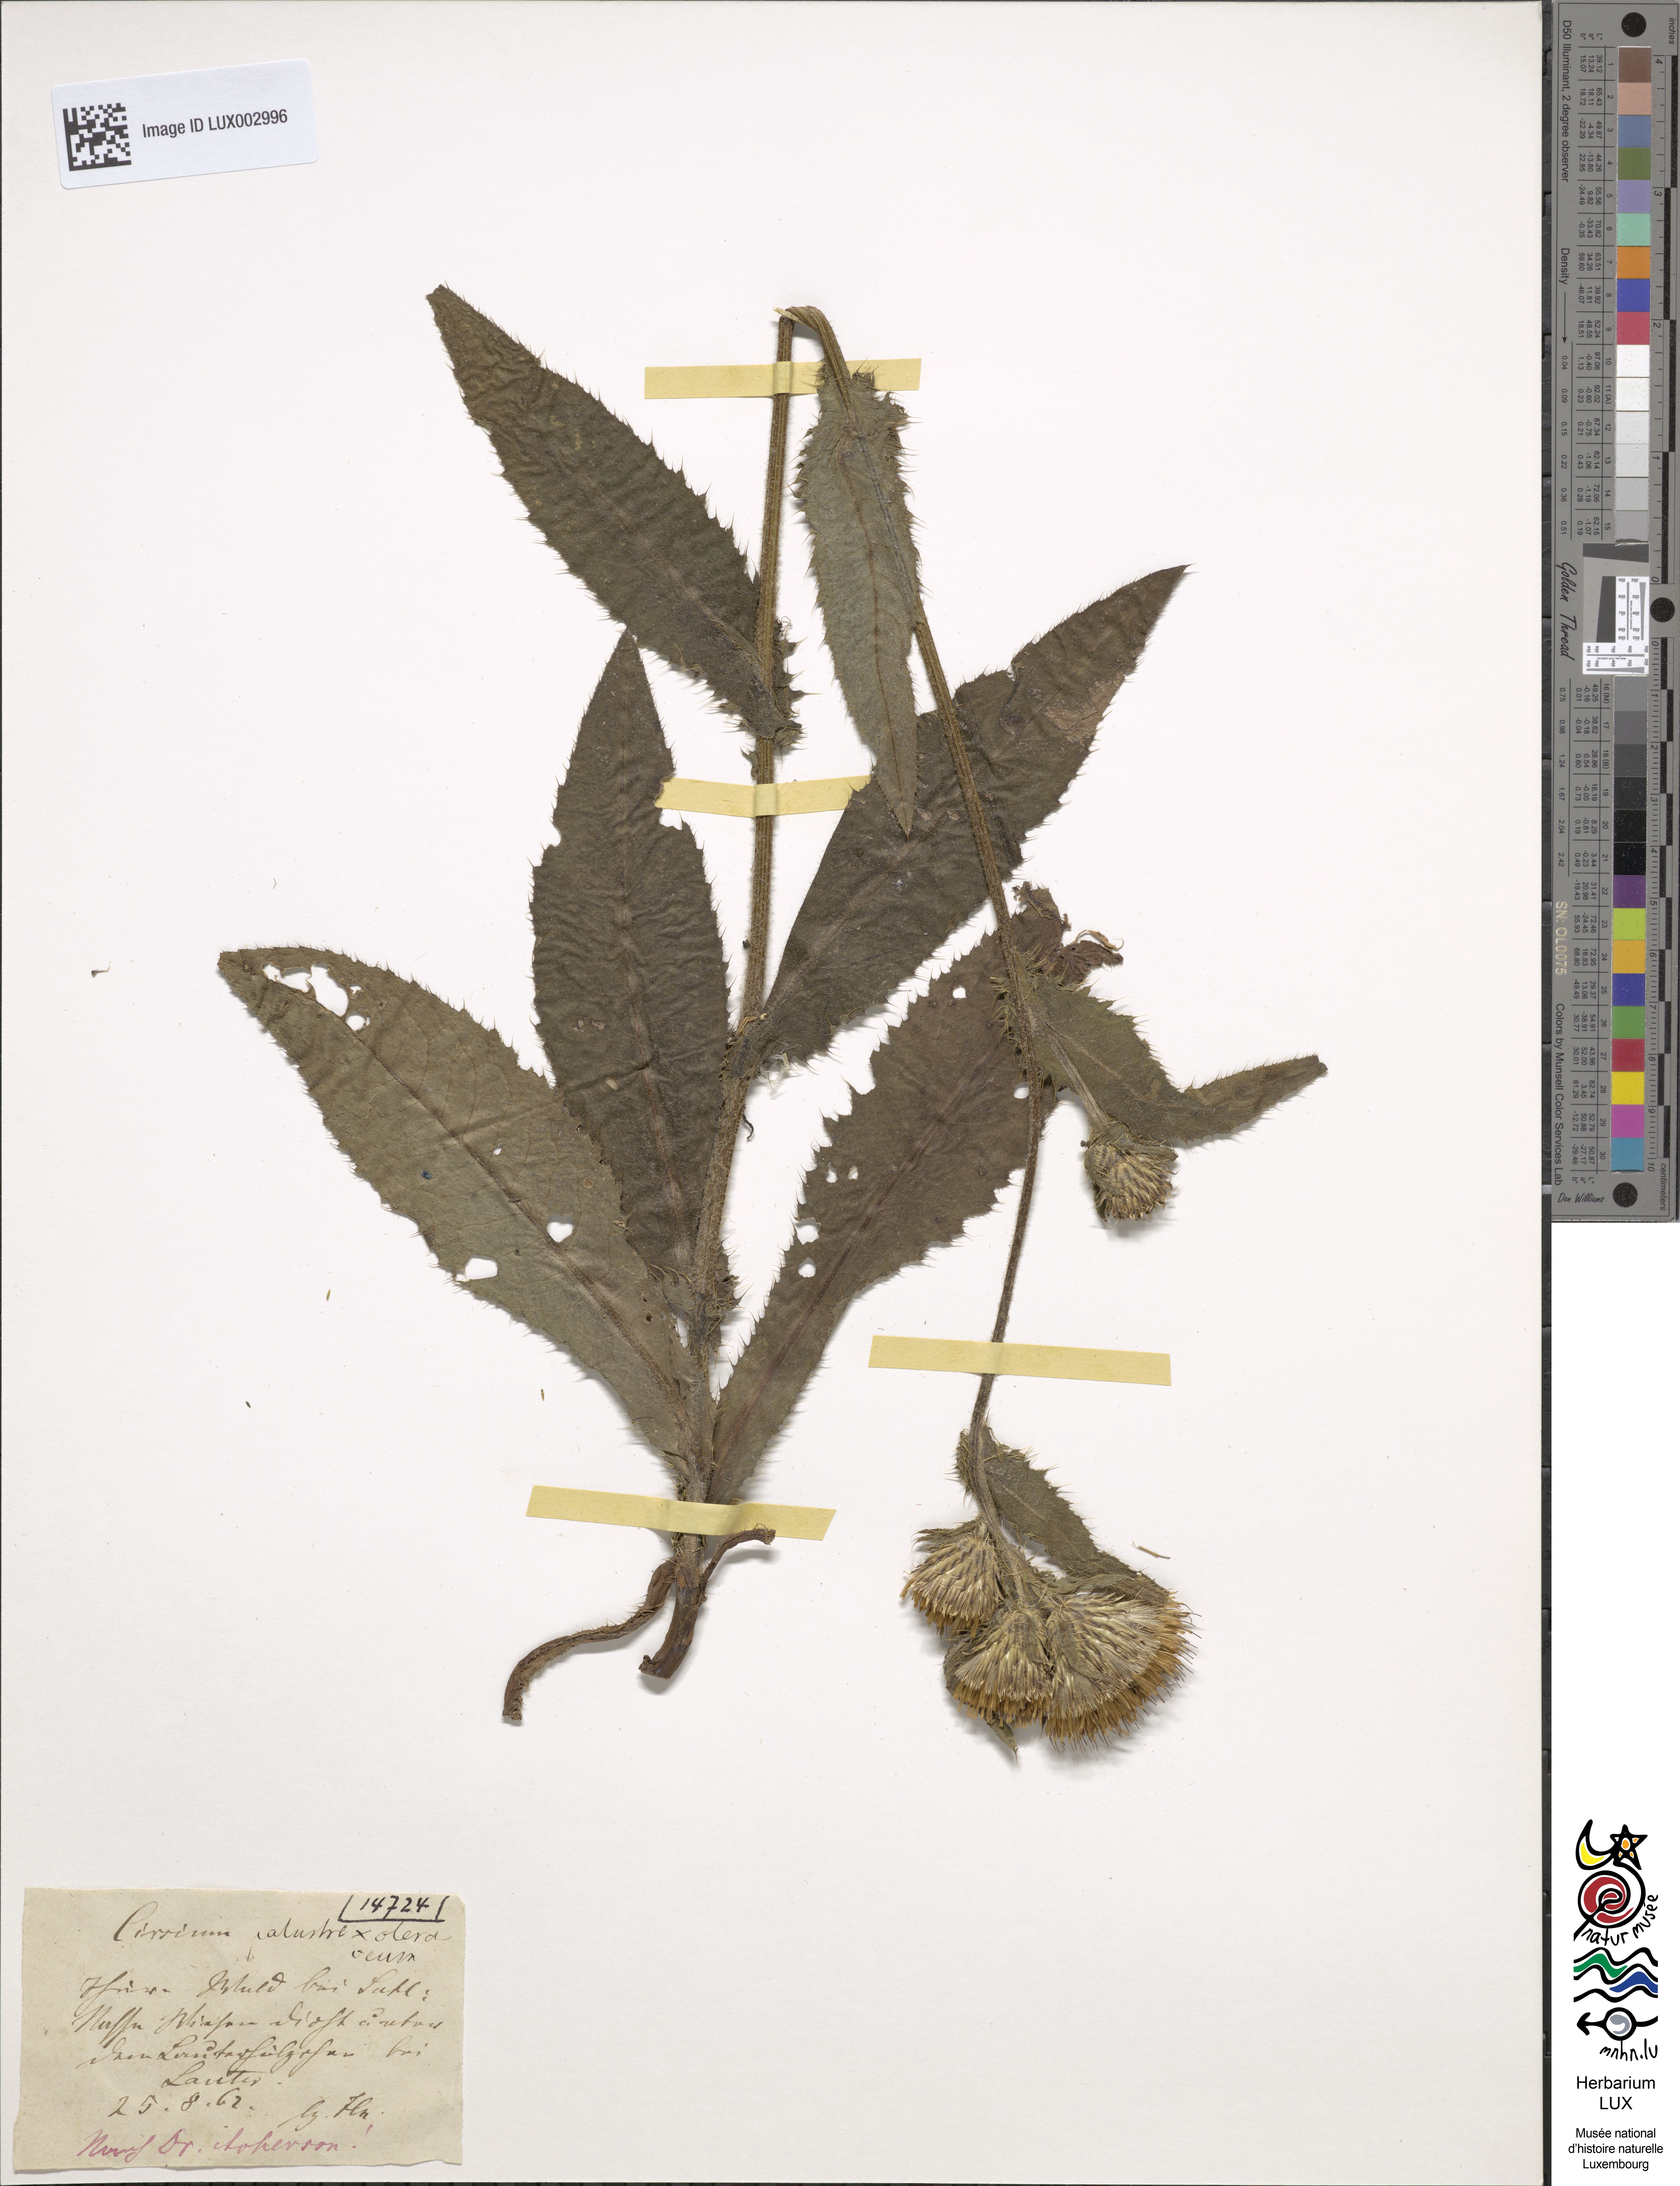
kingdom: Plantae
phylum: Tracheophyta
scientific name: Tracheophyta
